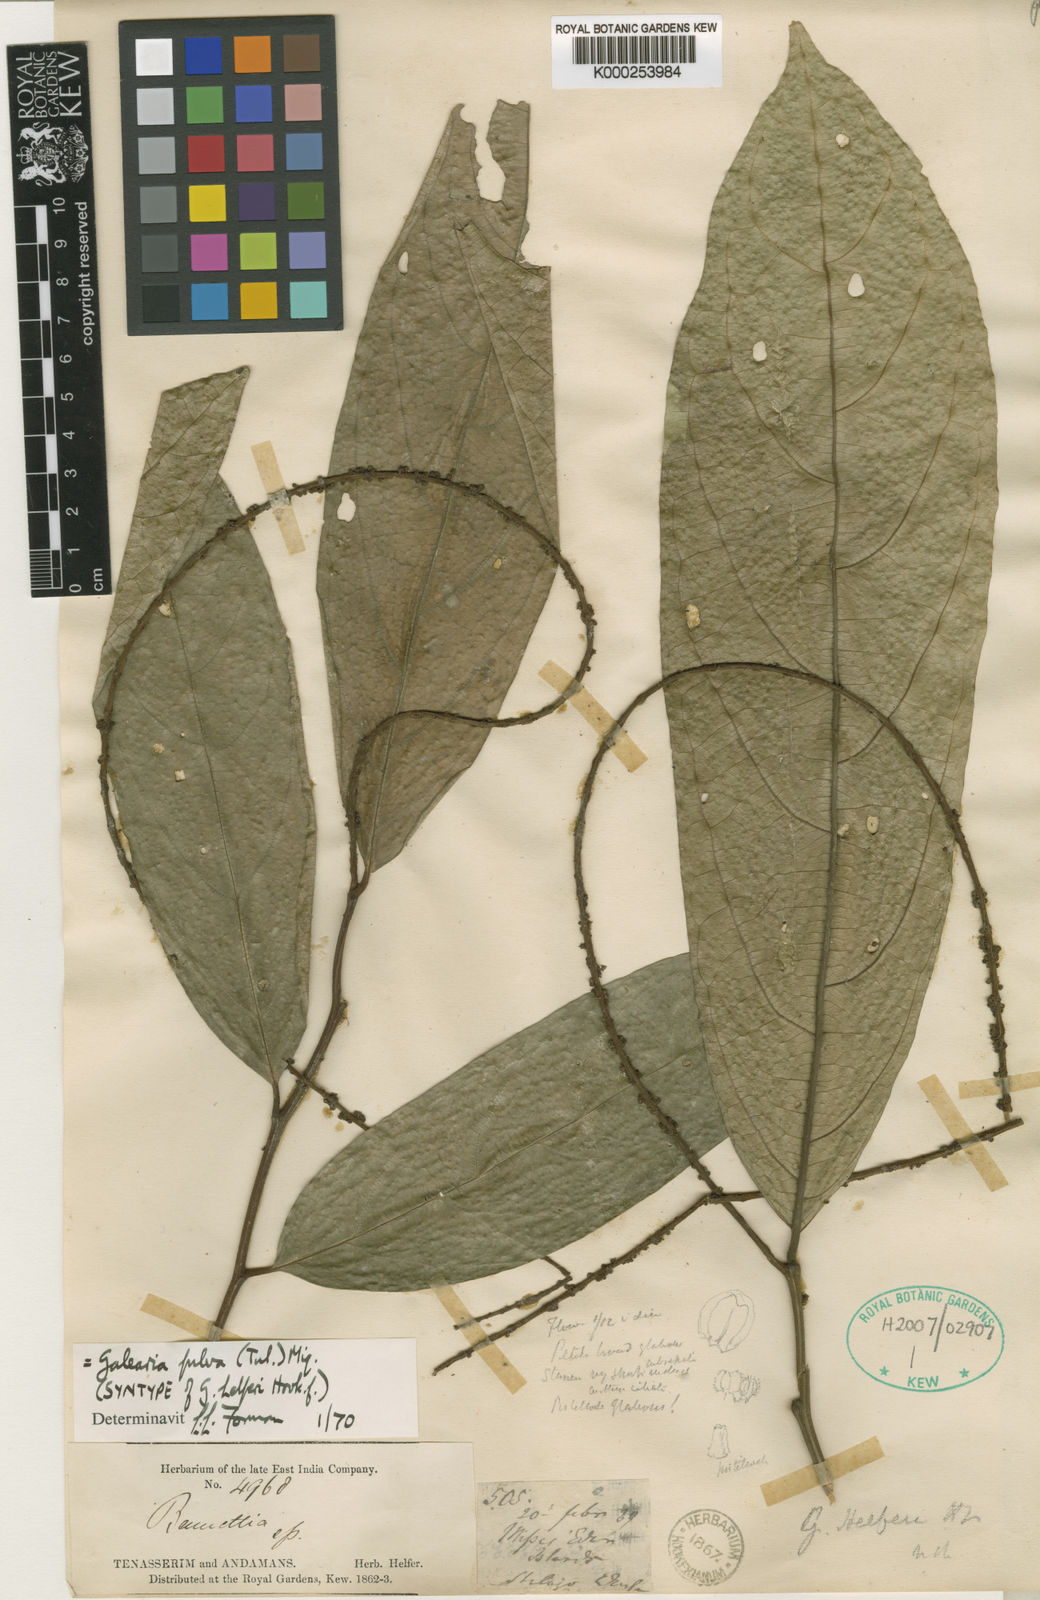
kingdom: Plantae
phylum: Tracheophyta
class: Magnoliopsida
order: Malpighiales
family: Pandaceae
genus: Galearia
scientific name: Galearia fulva
